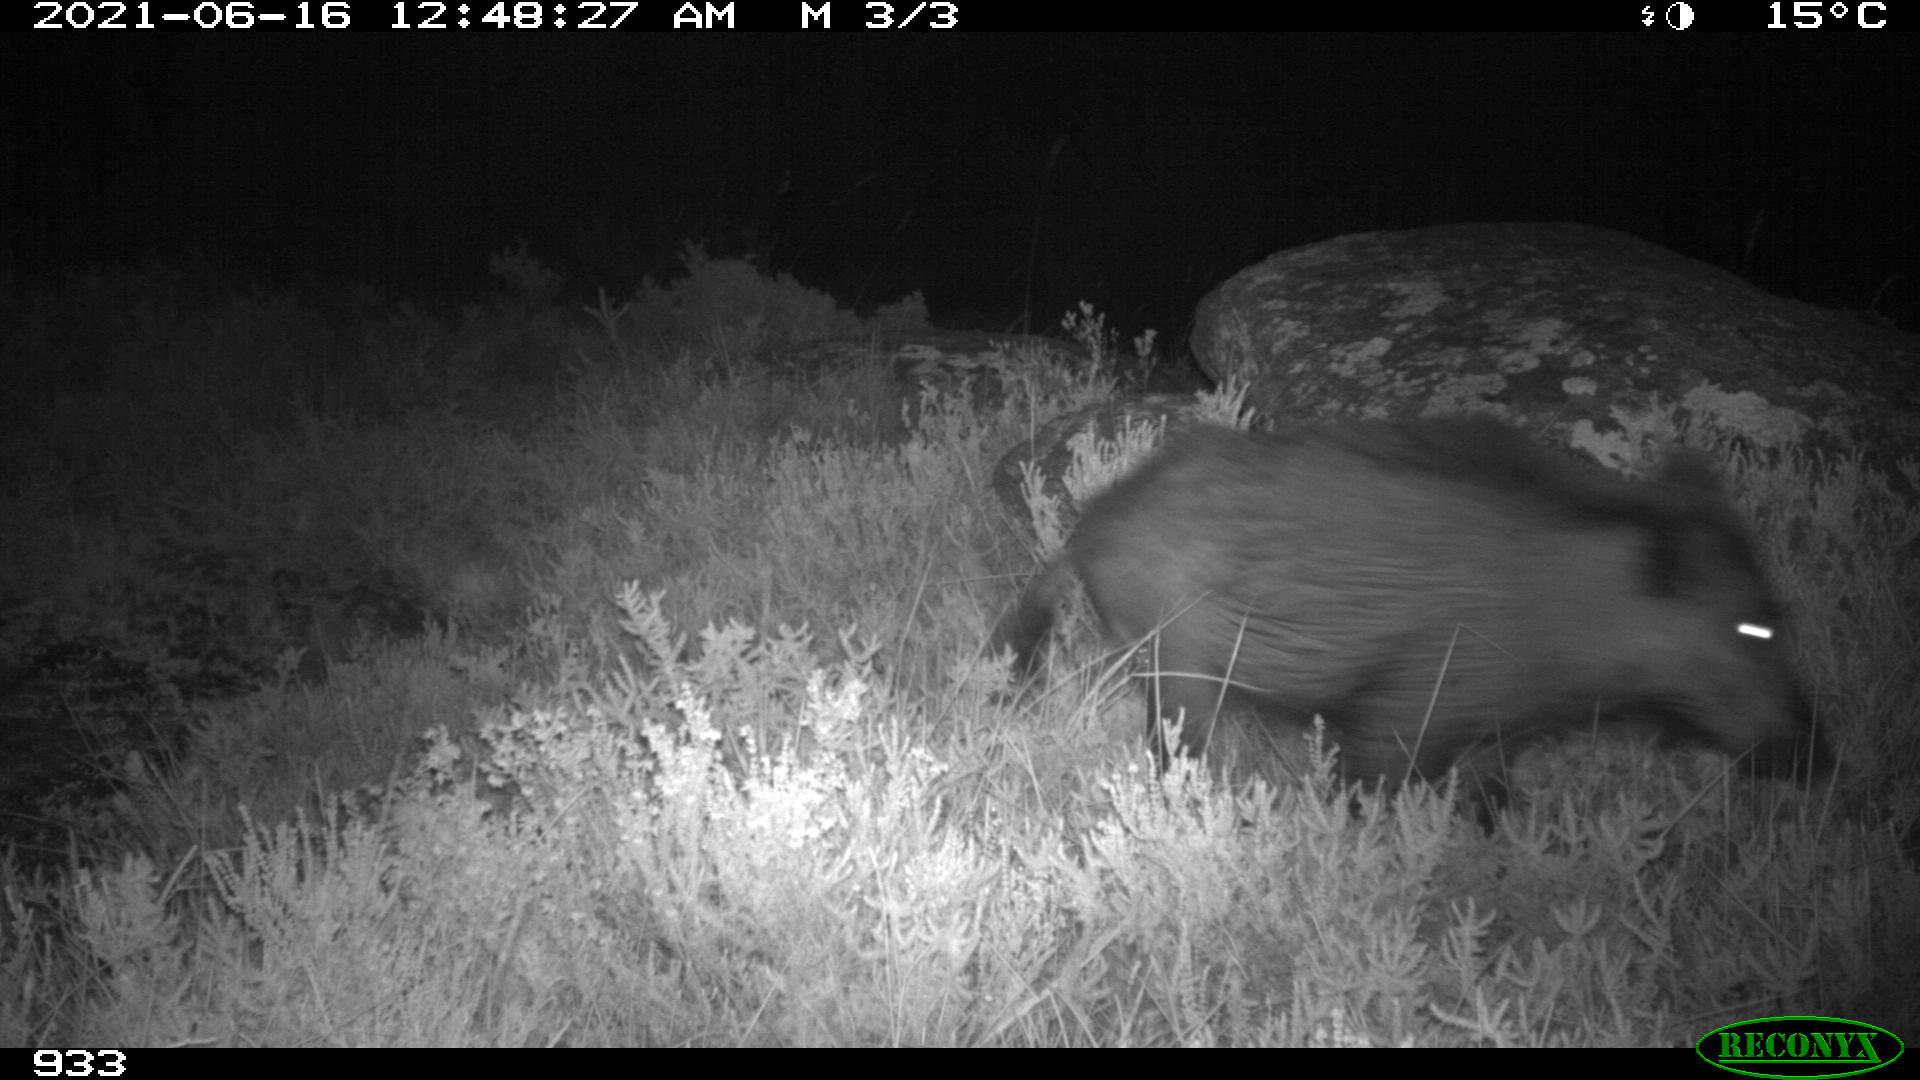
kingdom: Animalia
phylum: Chordata
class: Mammalia
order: Artiodactyla
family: Suidae
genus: Sus
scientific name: Sus scrofa
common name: Wild boar
